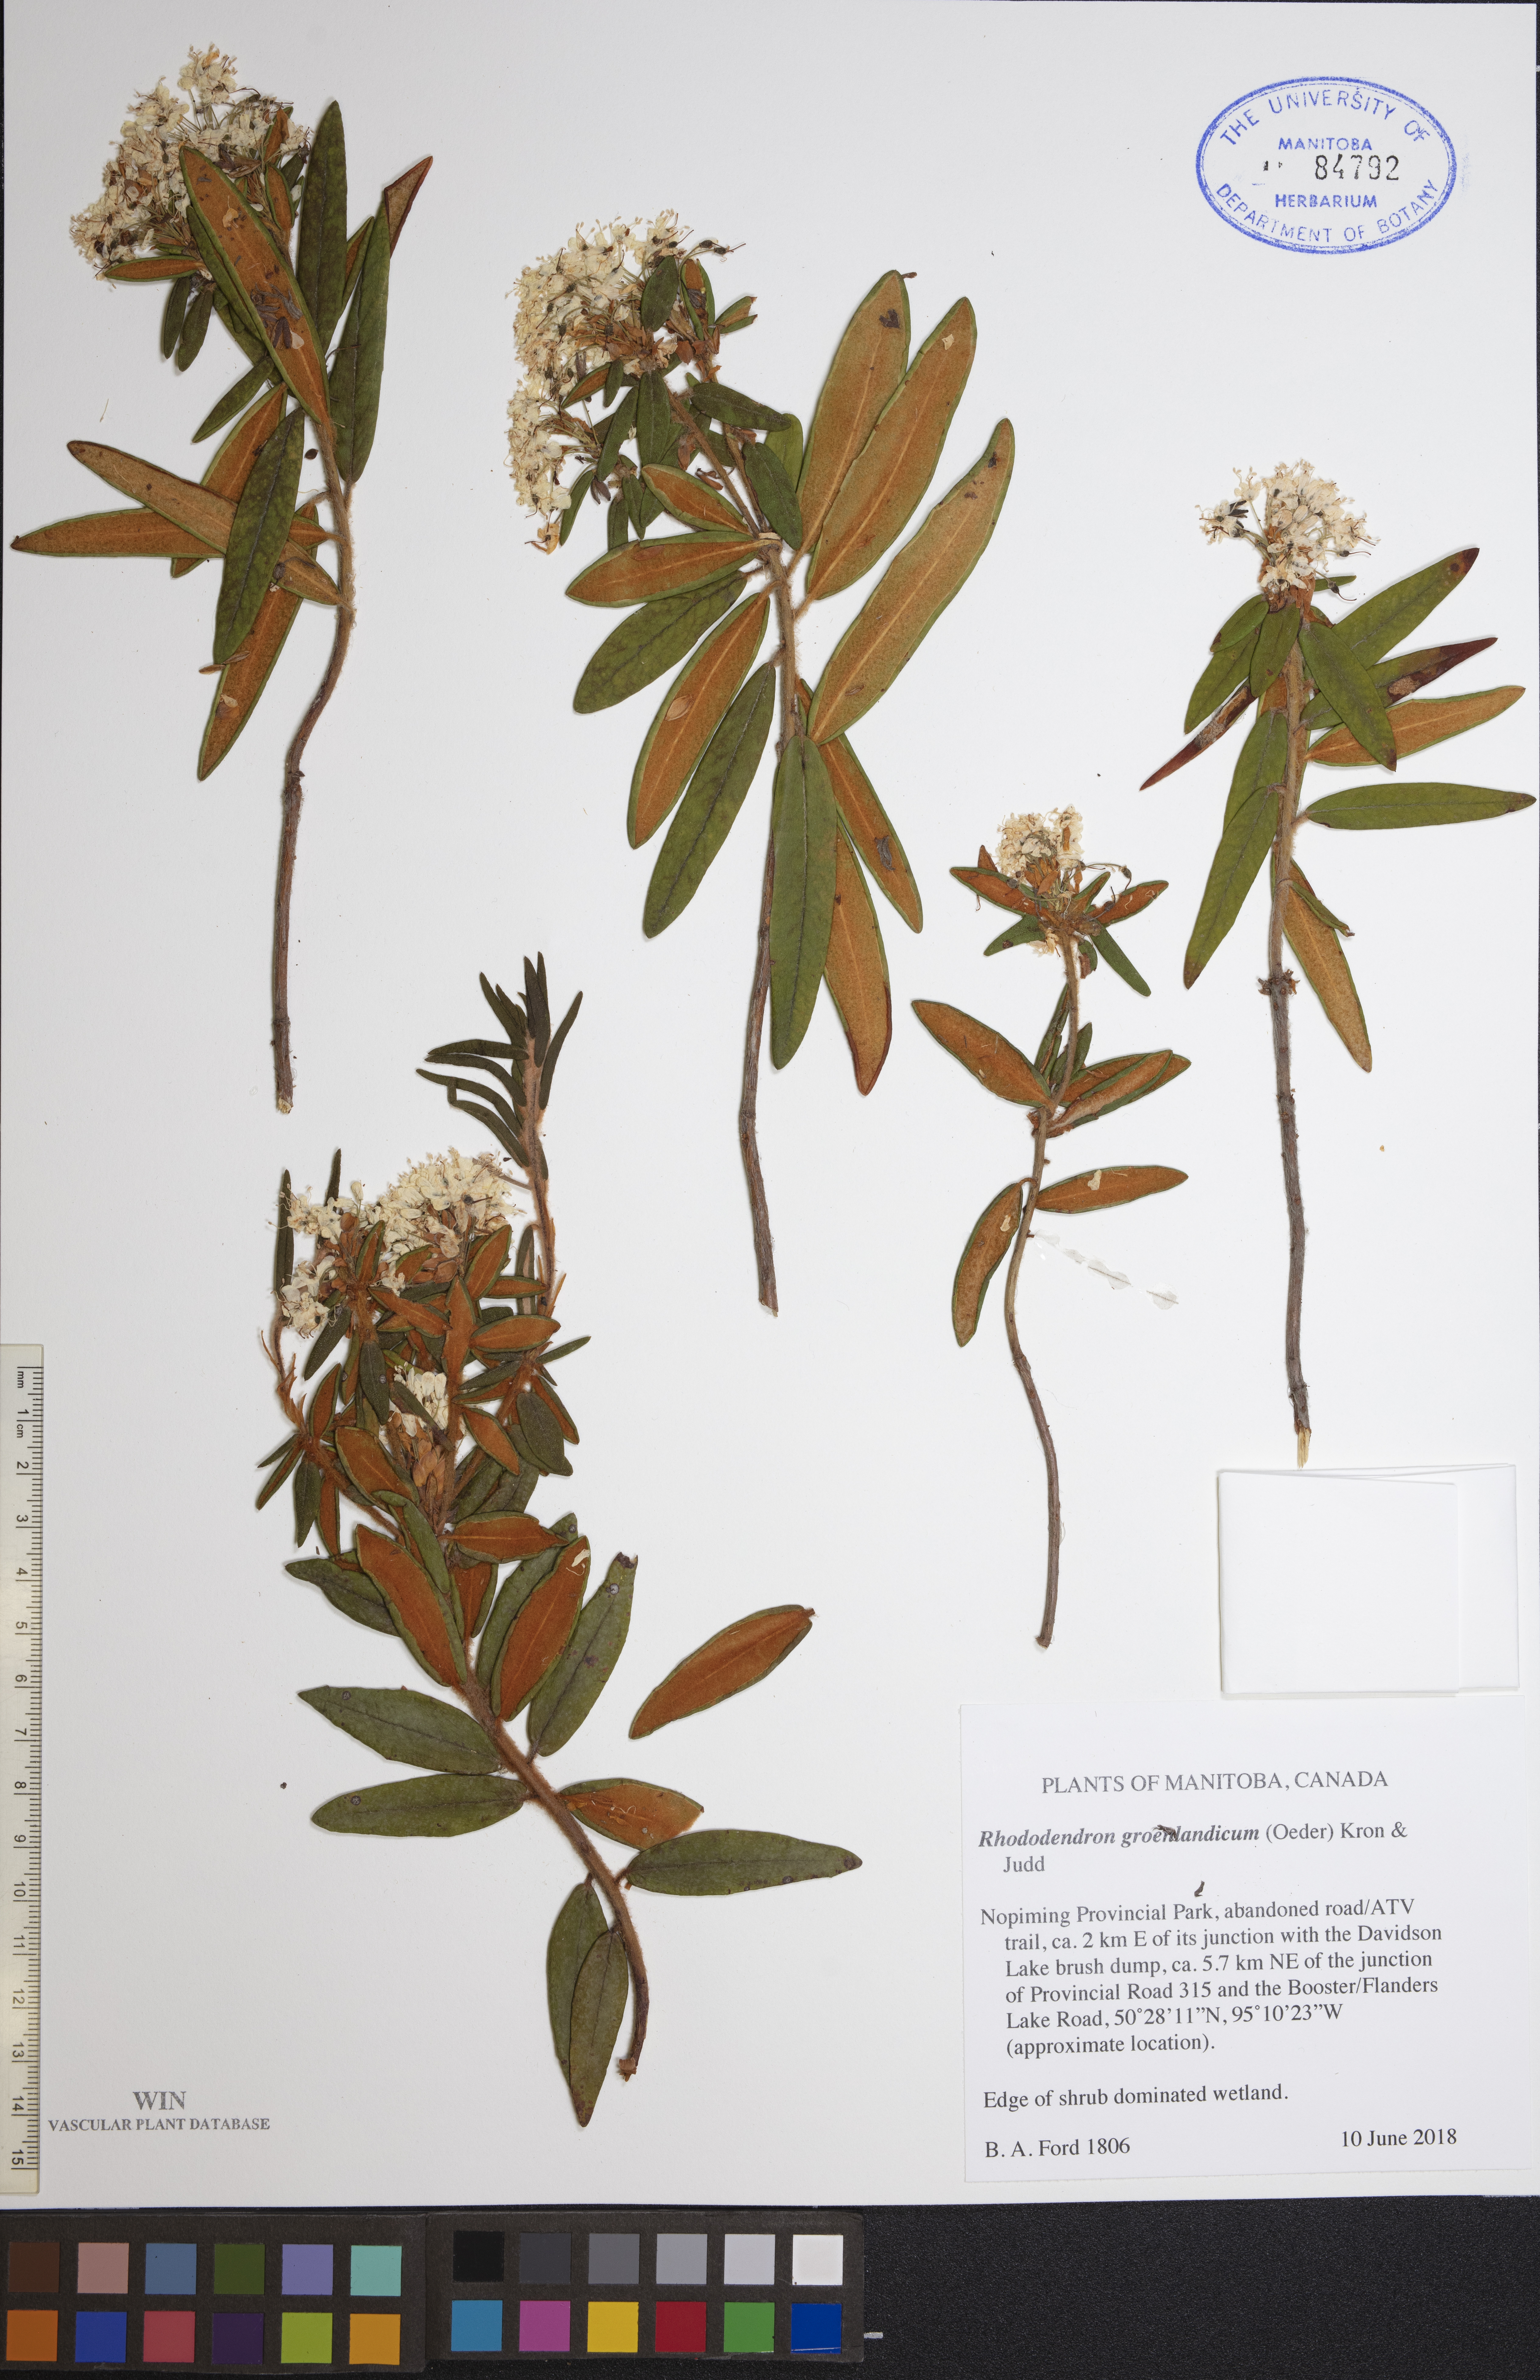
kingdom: Plantae
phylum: Tracheophyta
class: Magnoliopsida
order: Ericales
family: Ericaceae
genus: Rhododendron
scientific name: Rhododendron groenlandicum
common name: Bog labrador tea
